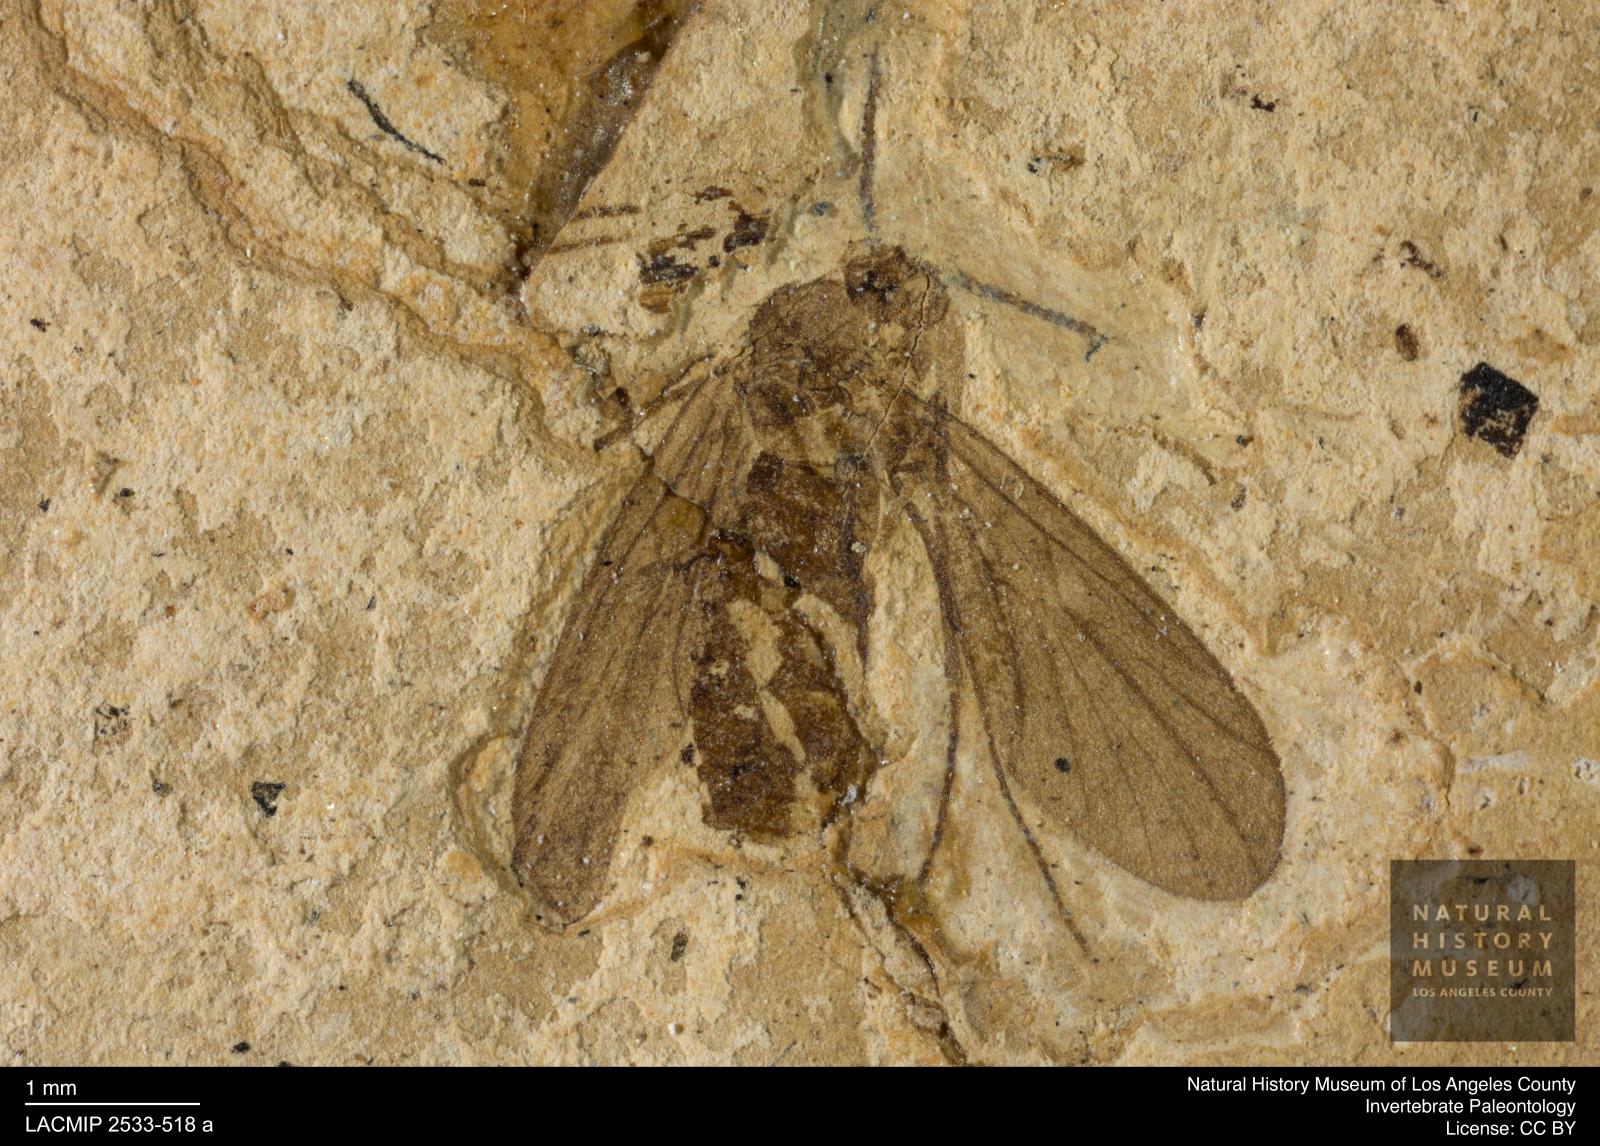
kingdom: Animalia
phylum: Arthropoda
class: Insecta
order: Diptera
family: Ditomyiidae
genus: Ditomyia
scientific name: Ditomyia pilosella
